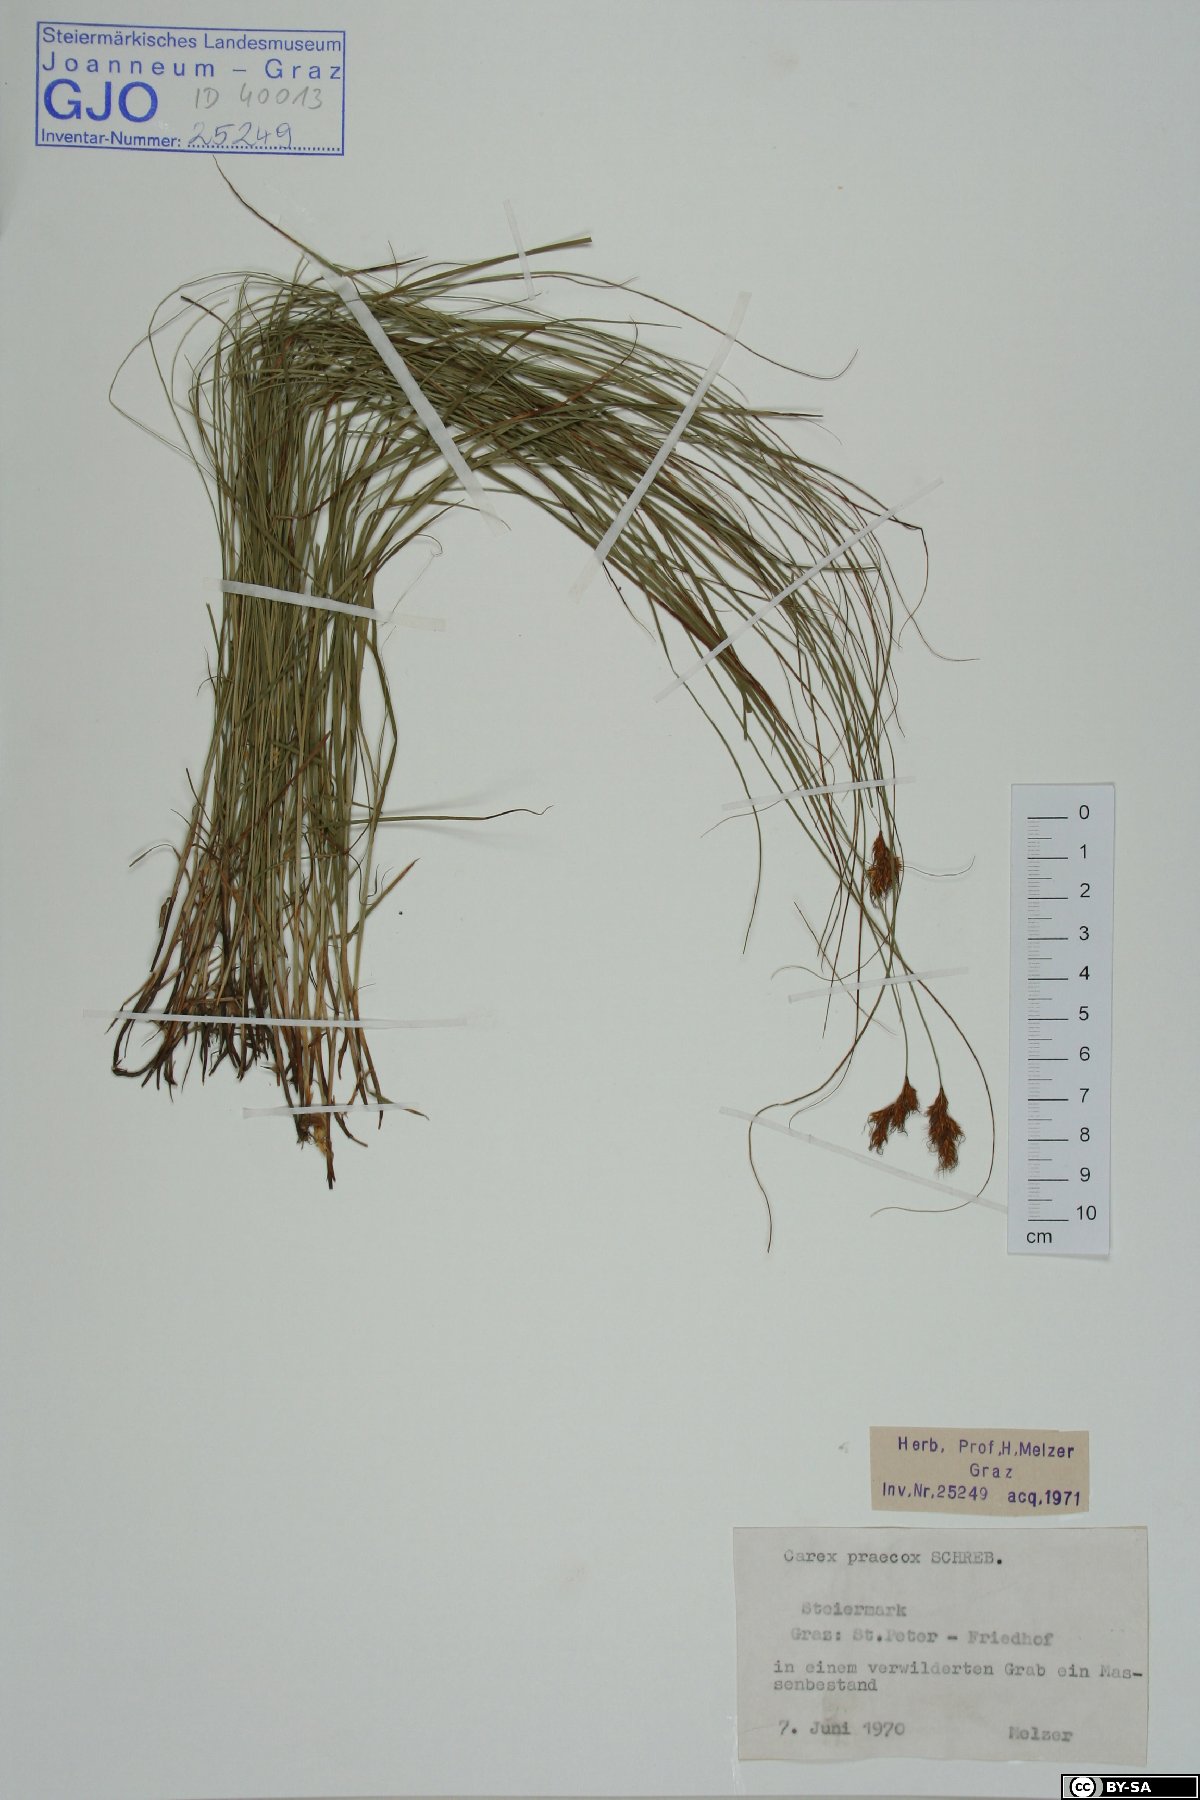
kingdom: Plantae
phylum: Tracheophyta
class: Liliopsida
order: Poales
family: Cyperaceae
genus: Carex
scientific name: Carex praecox
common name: Early sedge
